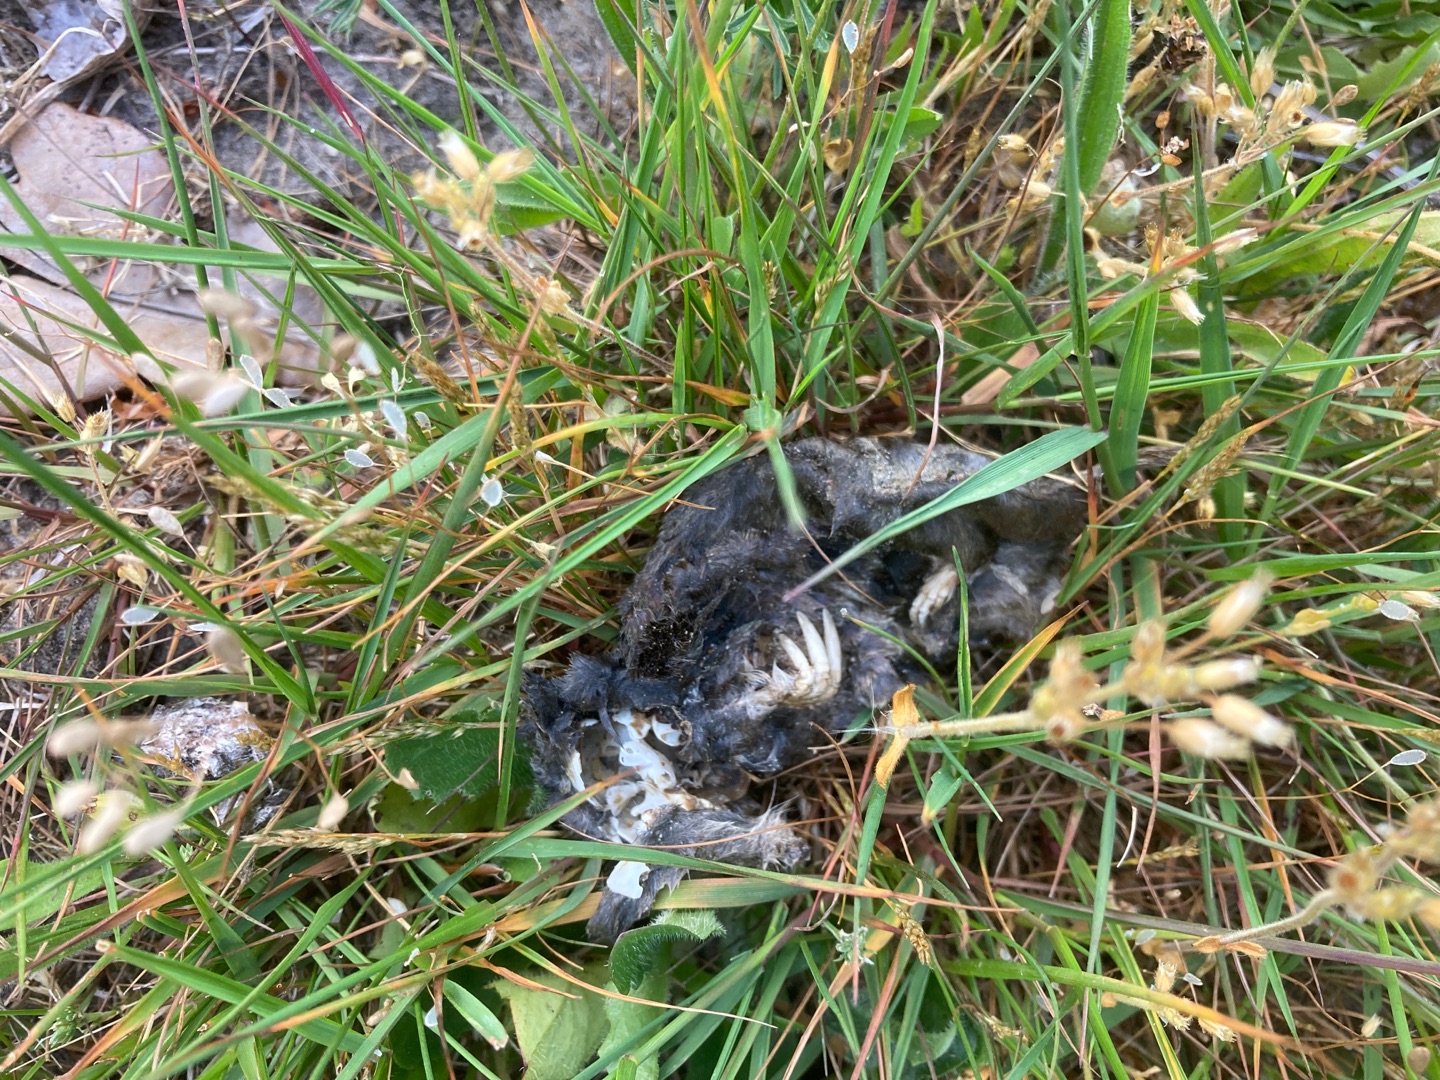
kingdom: Animalia
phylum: Chordata
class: Mammalia
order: Soricomorpha
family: Talpidae
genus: Talpa
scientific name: Talpa europaea
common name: Muldvarp
